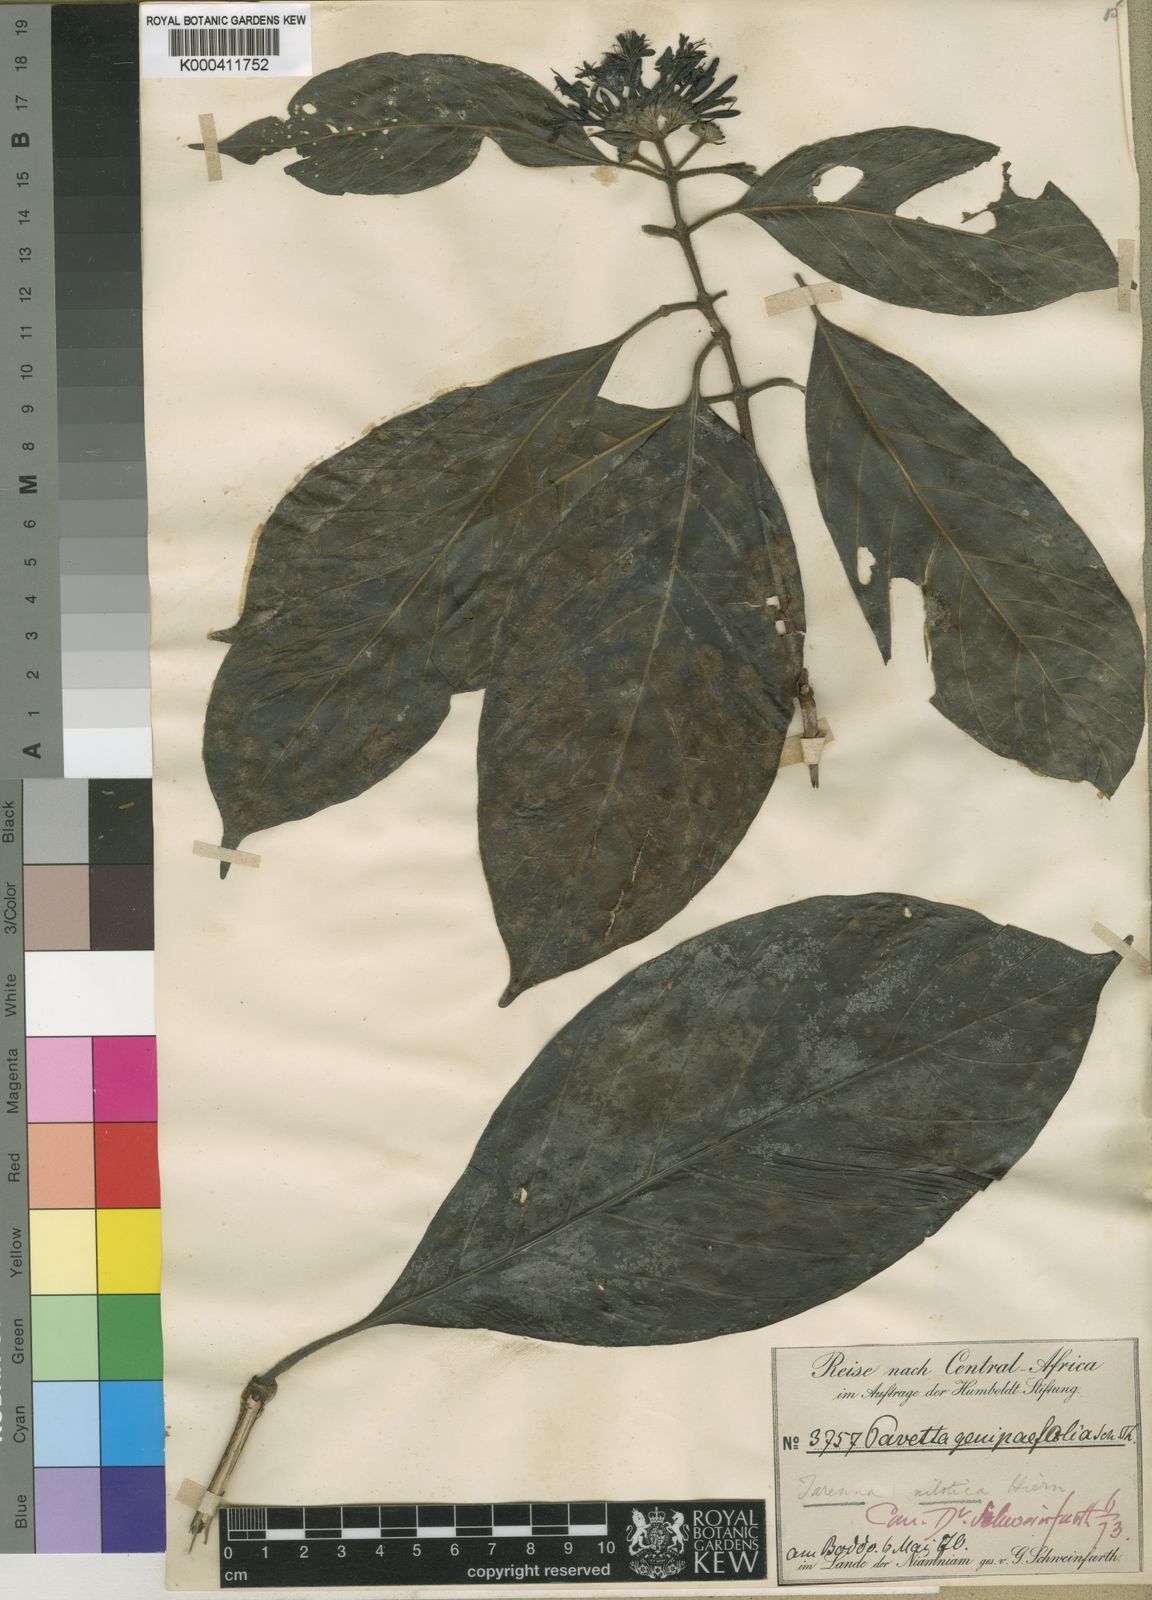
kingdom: Plantae
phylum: Tracheophyta
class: Magnoliopsida
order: Gentianales
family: Rubiaceae
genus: Tarenna
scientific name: Tarenna nilotica
